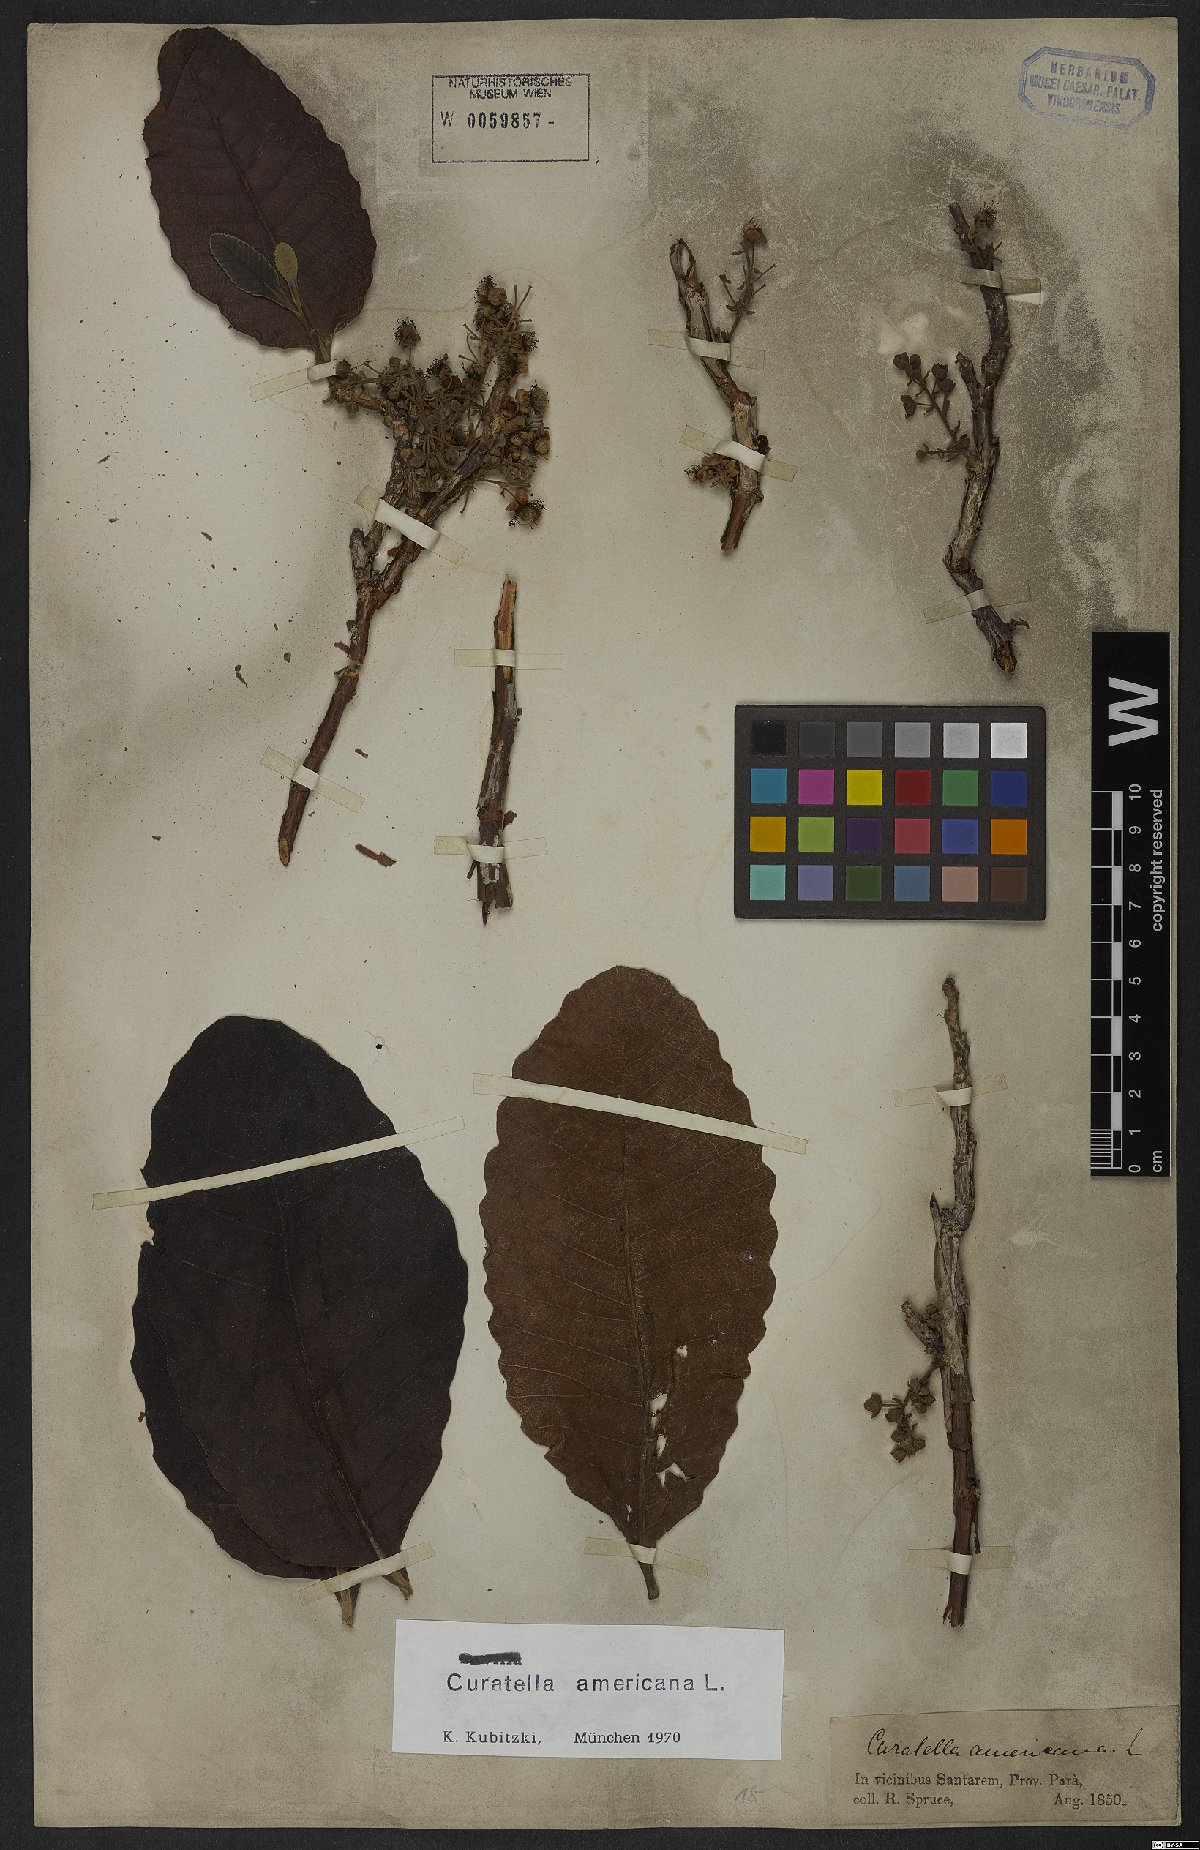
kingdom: Plantae
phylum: Tracheophyta
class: Magnoliopsida
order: Dilleniales
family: Dilleniaceae
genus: Curatella
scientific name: Curatella americana
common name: Sandpaper tree
